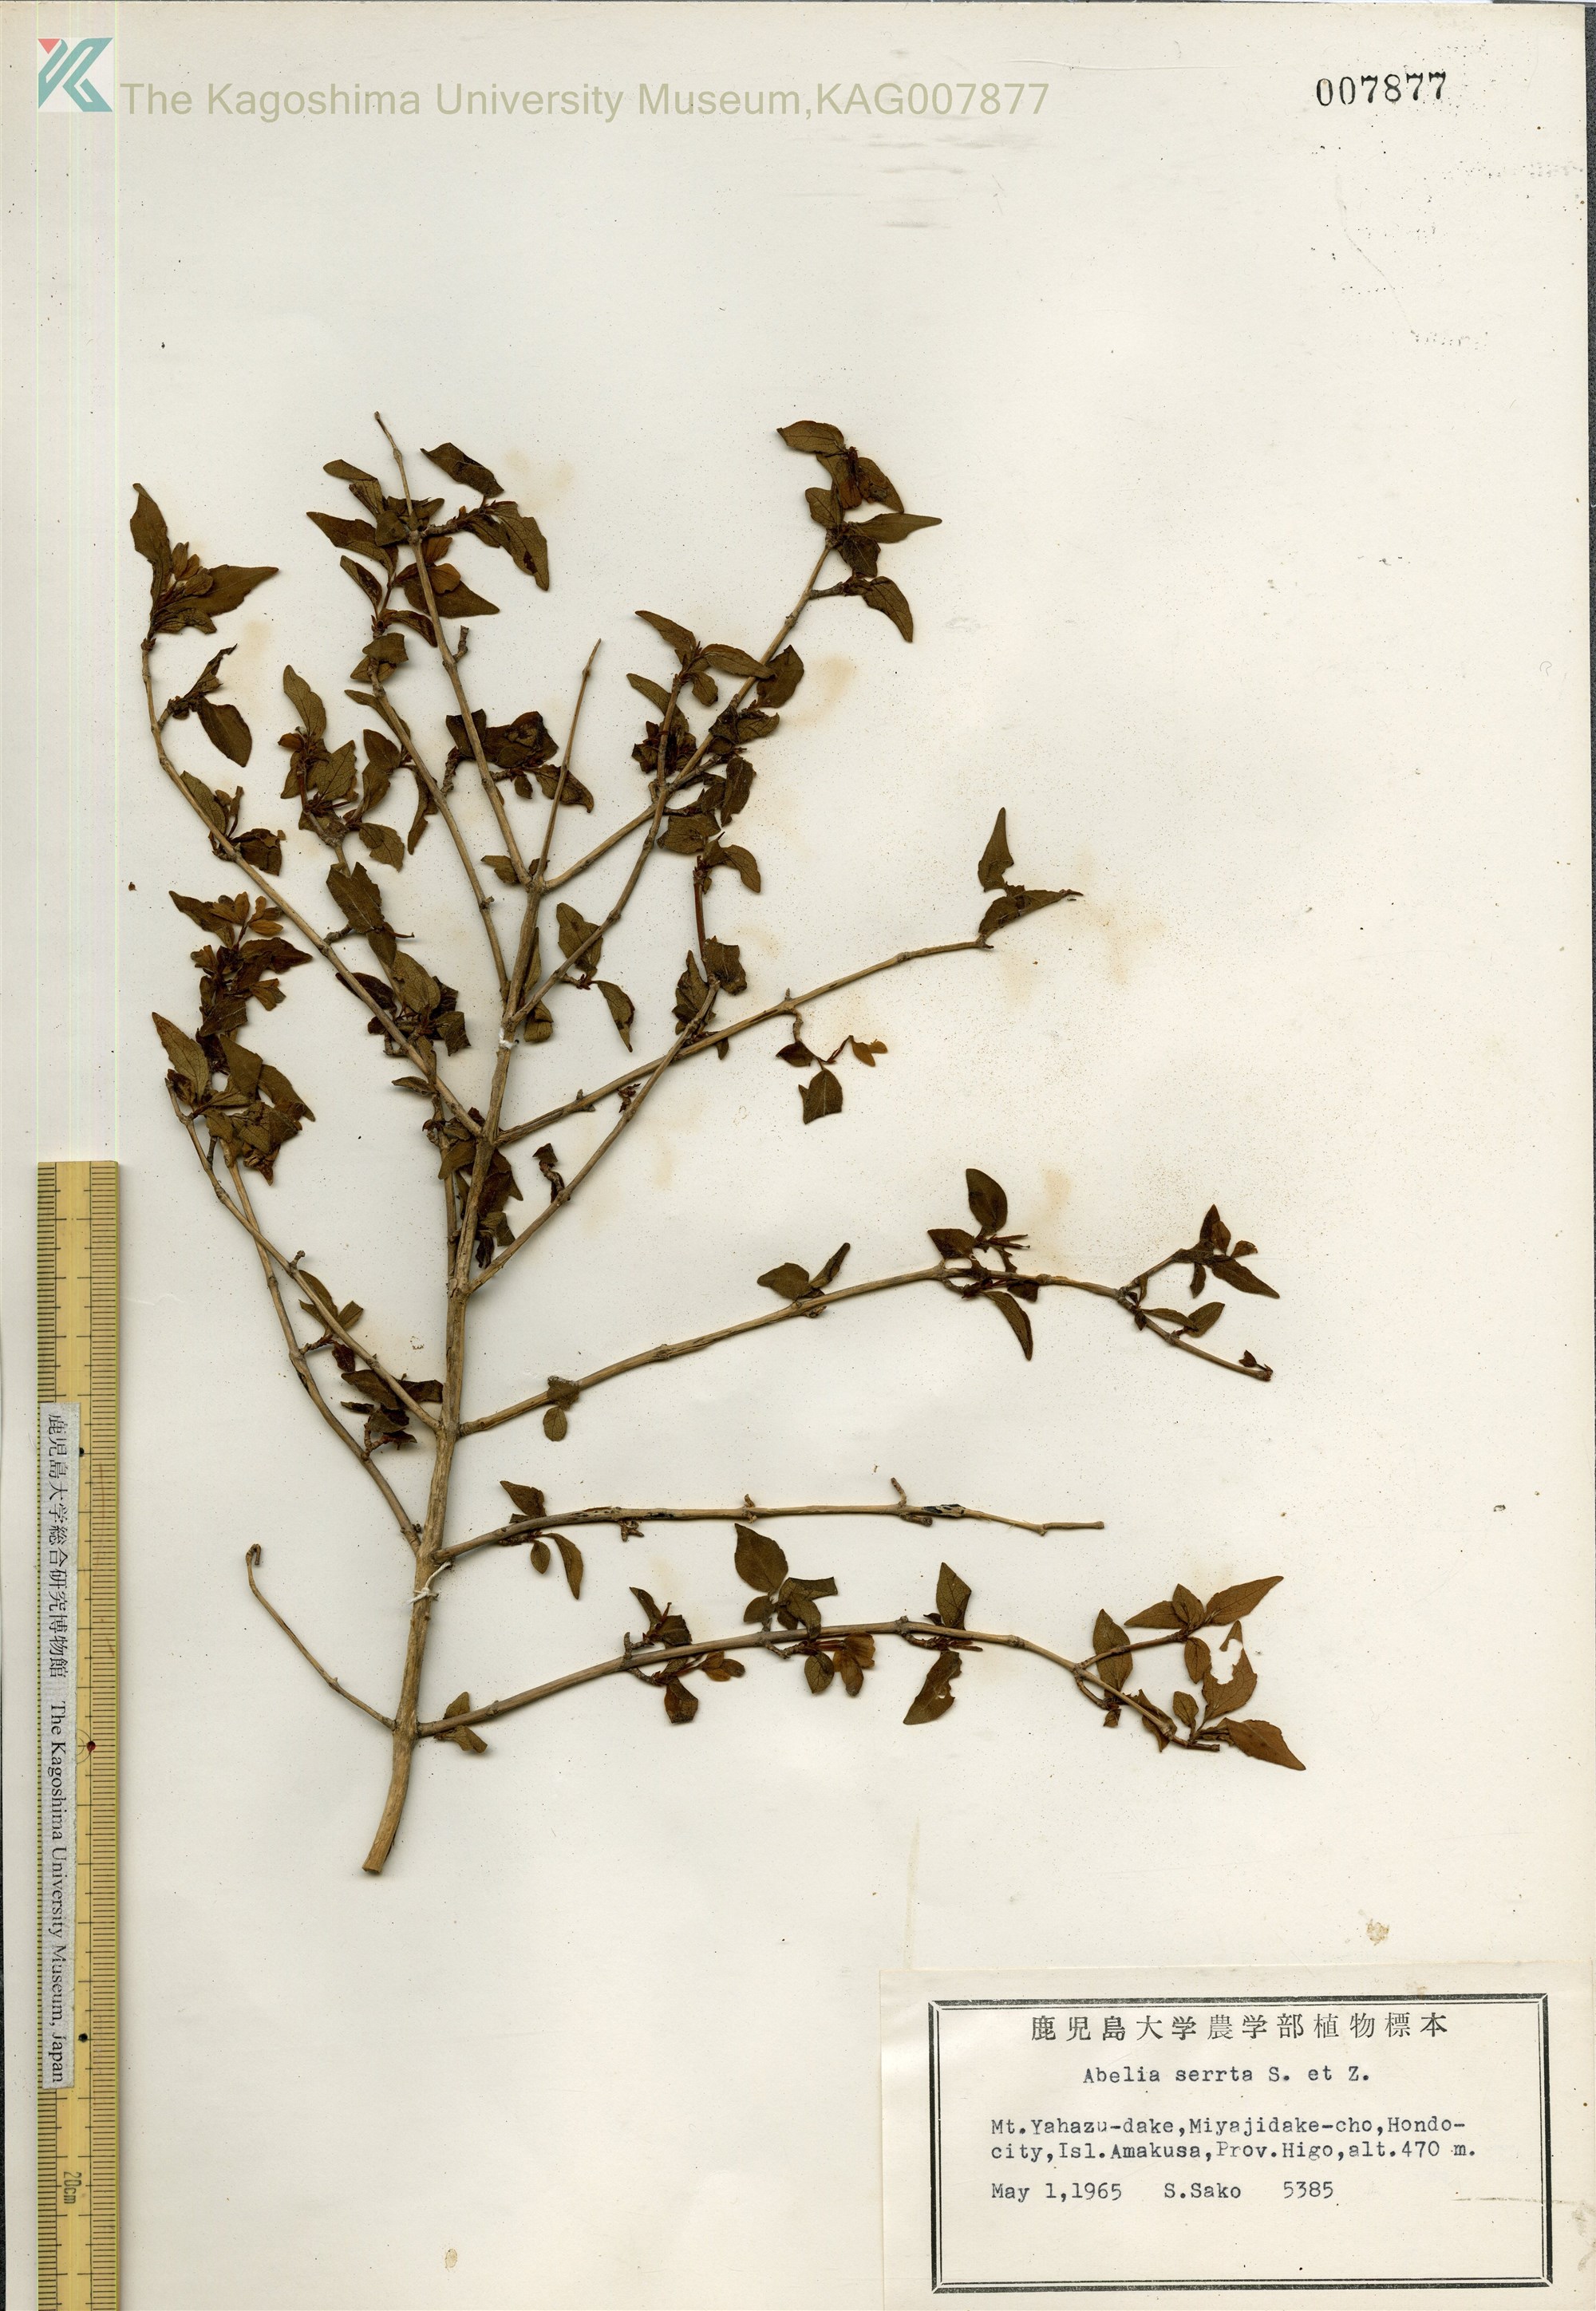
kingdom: Plantae
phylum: Tracheophyta
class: Magnoliopsida
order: Dipsacales
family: Caprifoliaceae
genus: Diabelia
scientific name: Diabelia serrata
